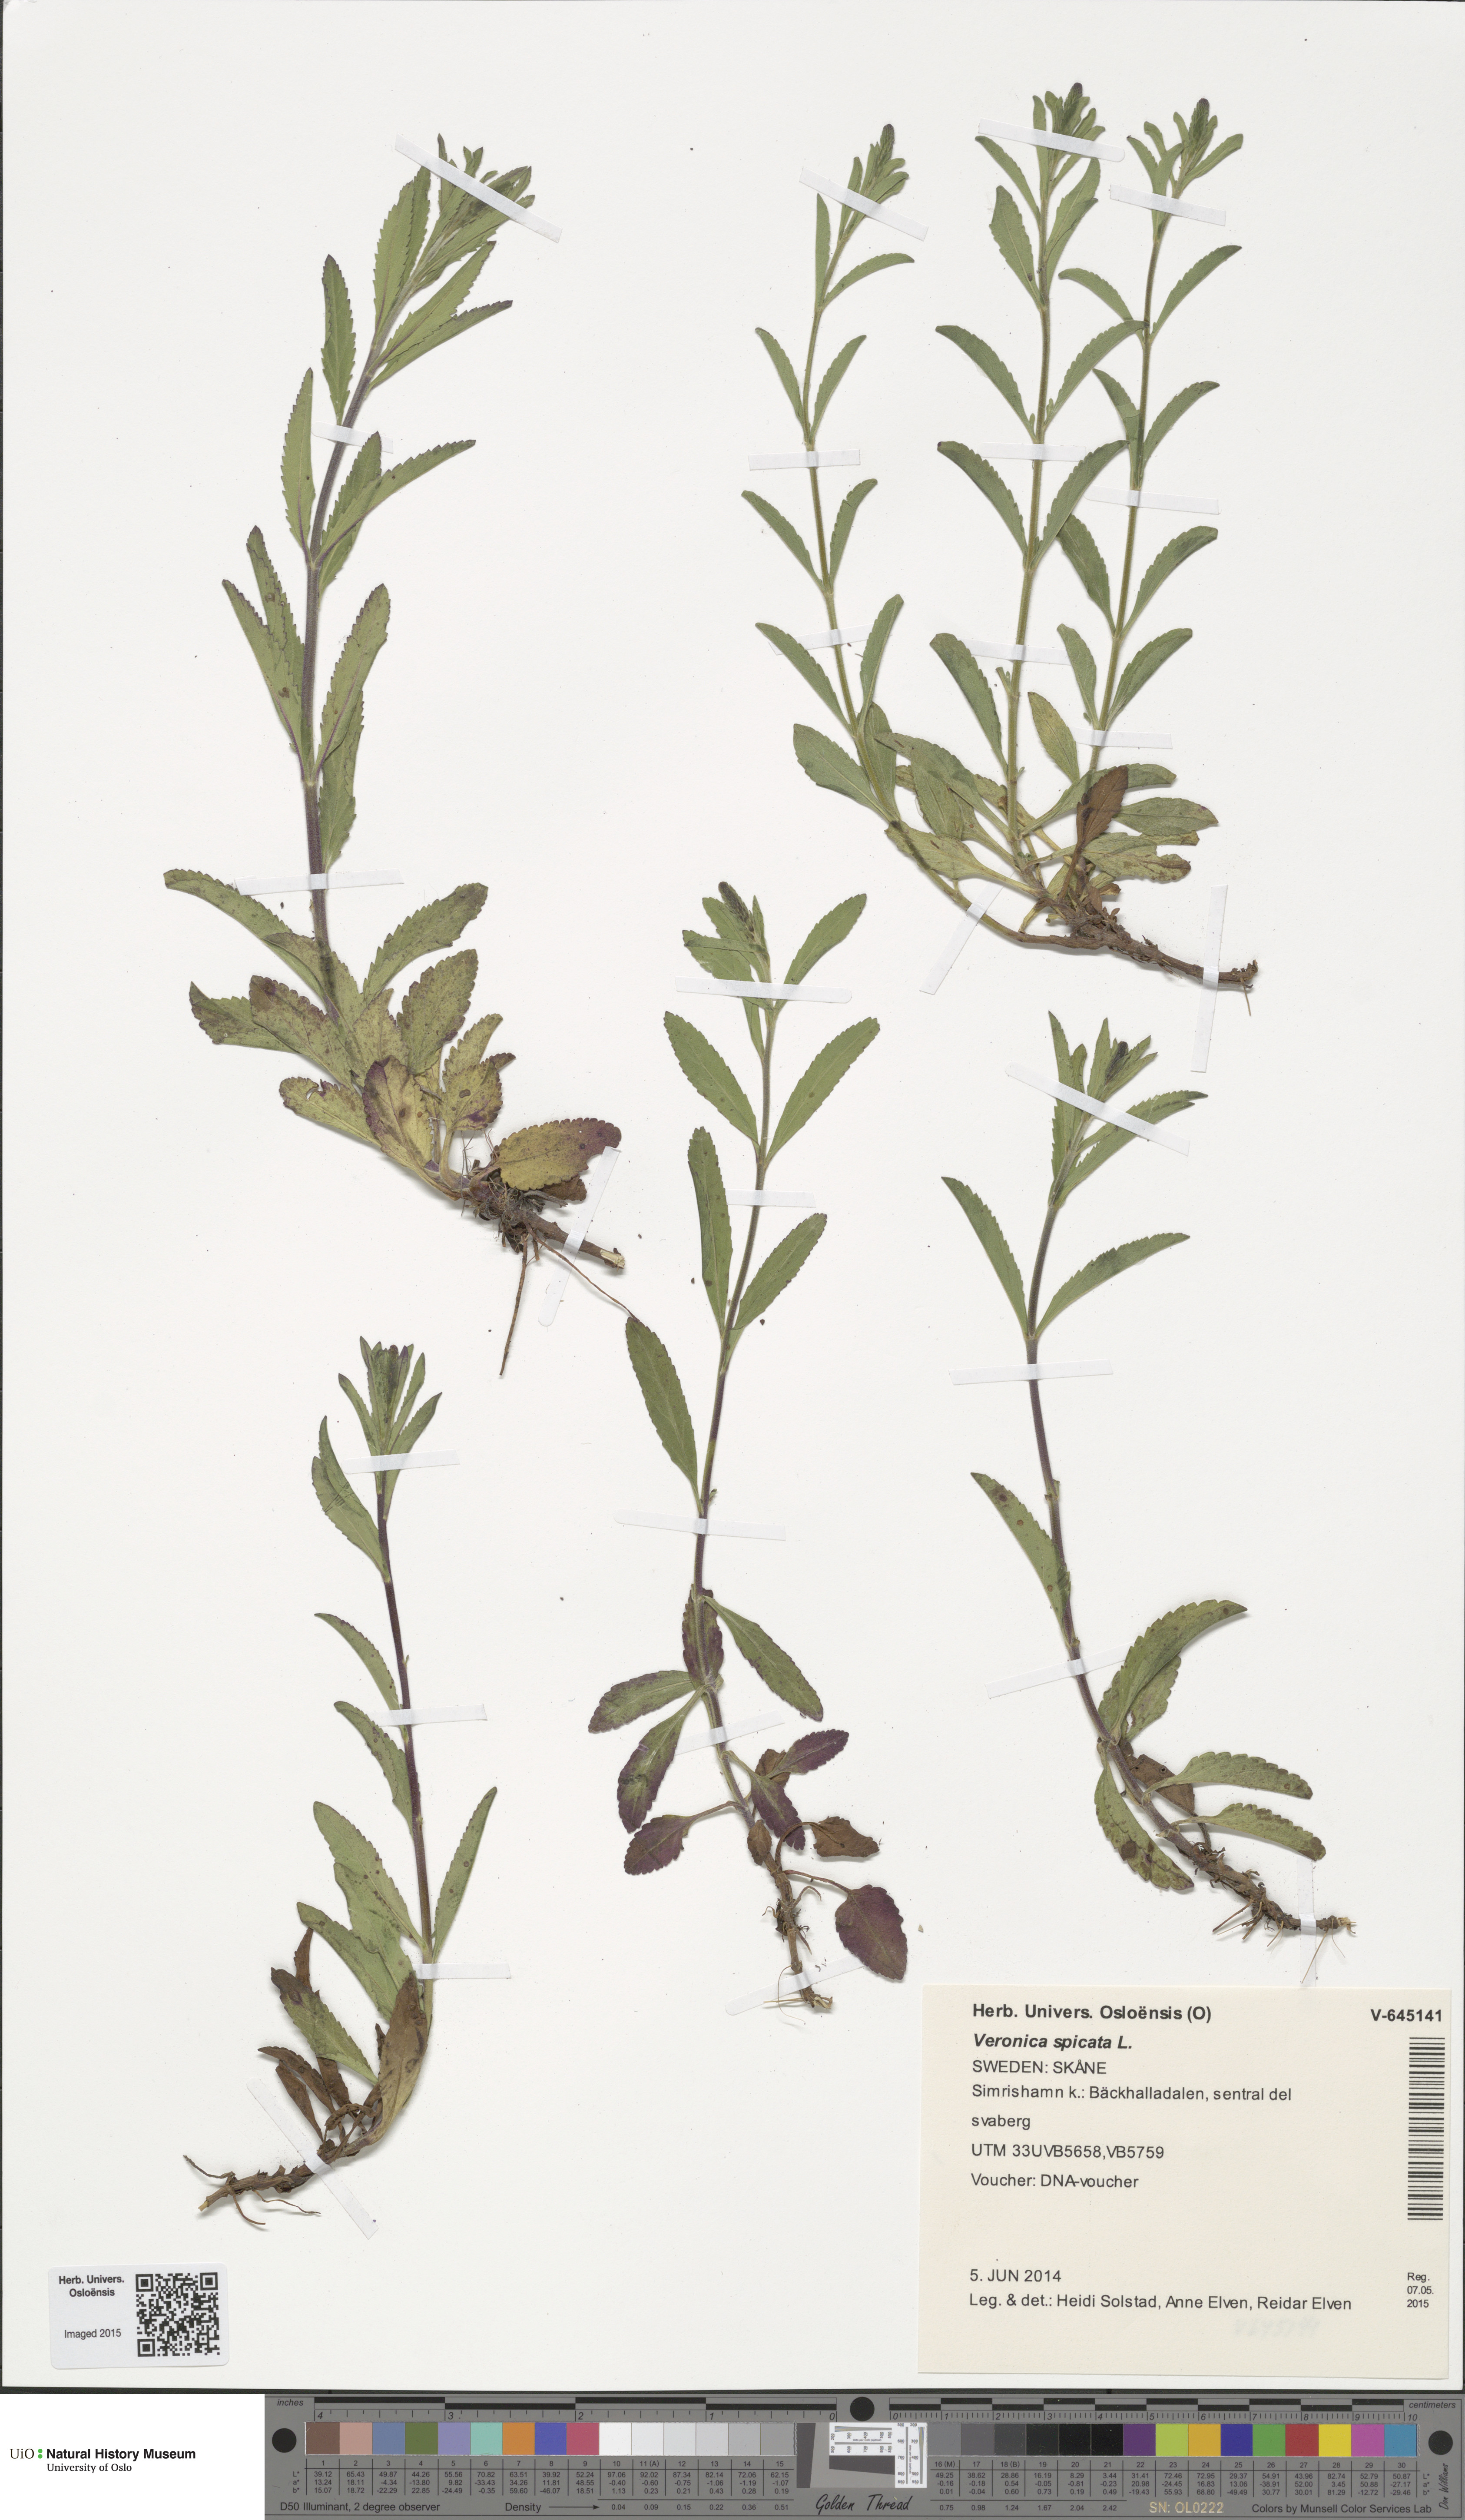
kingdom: Plantae
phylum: Tracheophyta
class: Magnoliopsida
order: Lamiales
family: Plantaginaceae
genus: Veronica
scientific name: Veronica spicata
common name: Spiked speedwell
